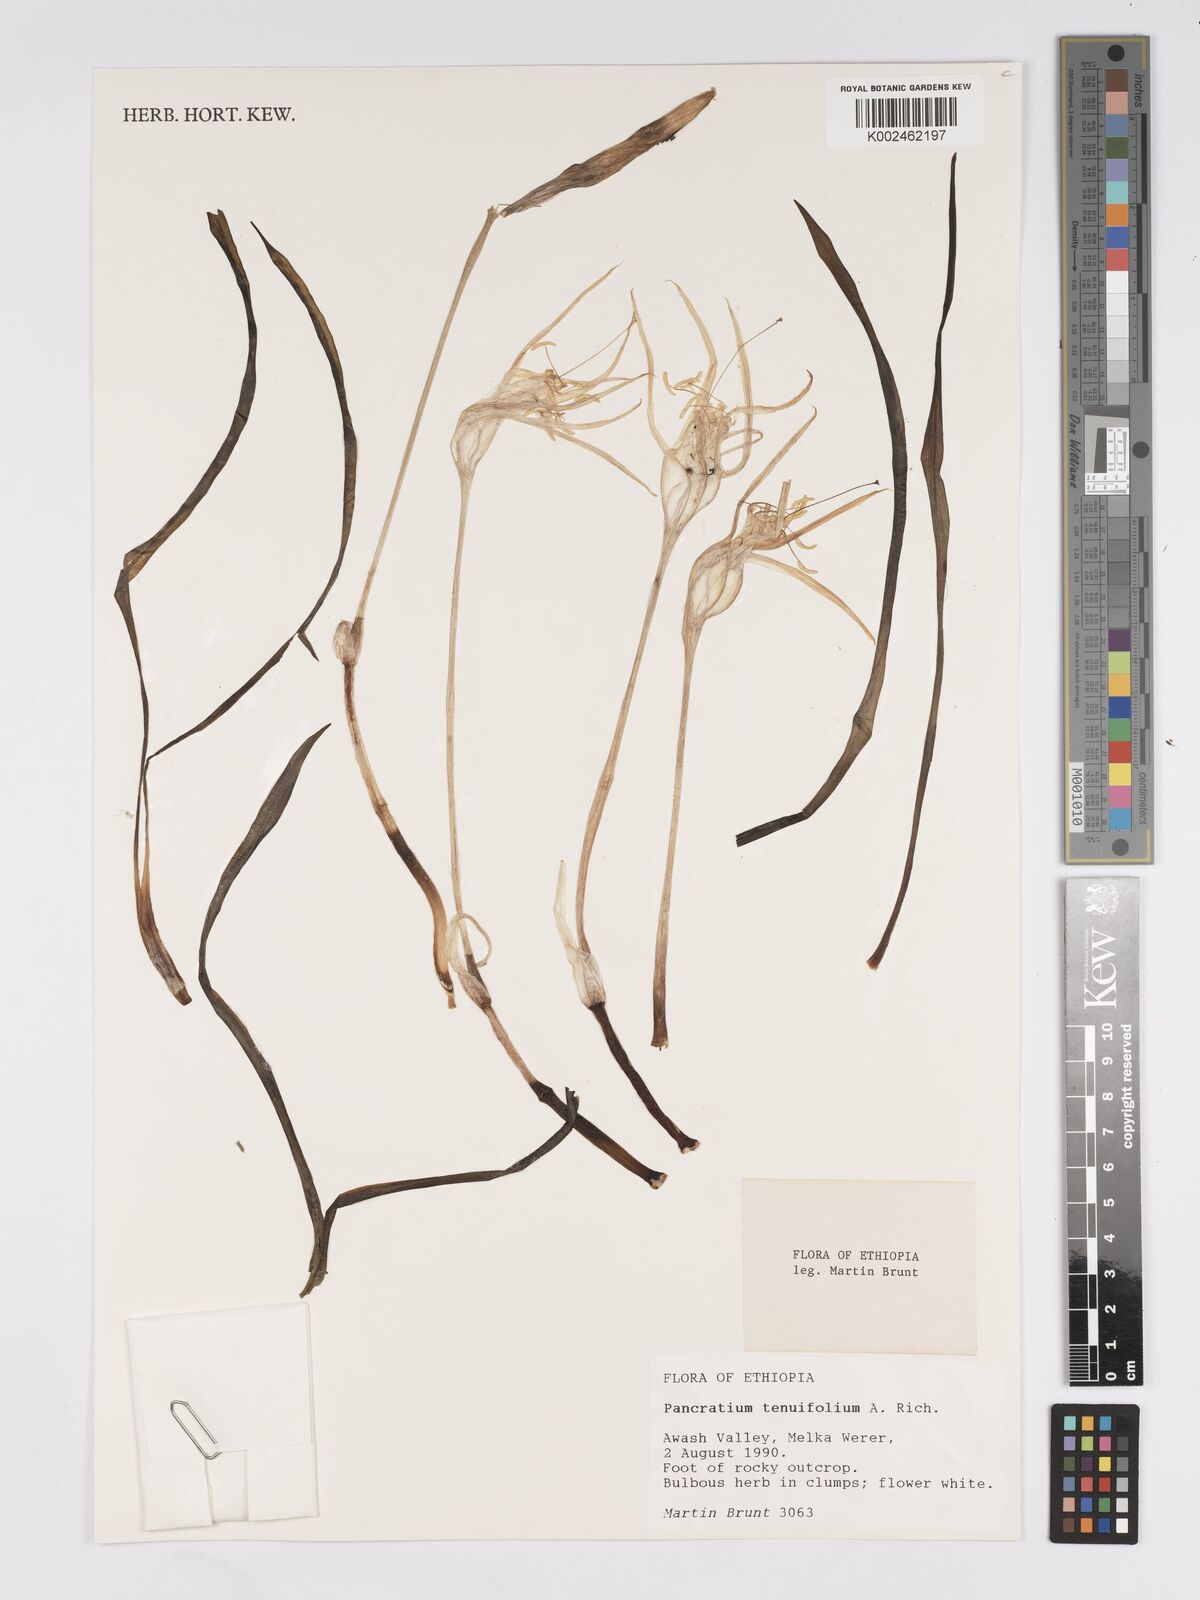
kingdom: Plantae
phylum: Tracheophyta
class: Liliopsida
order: Asparagales
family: Amaryllidaceae
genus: Pancratium
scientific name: Pancratium tenuifolium
